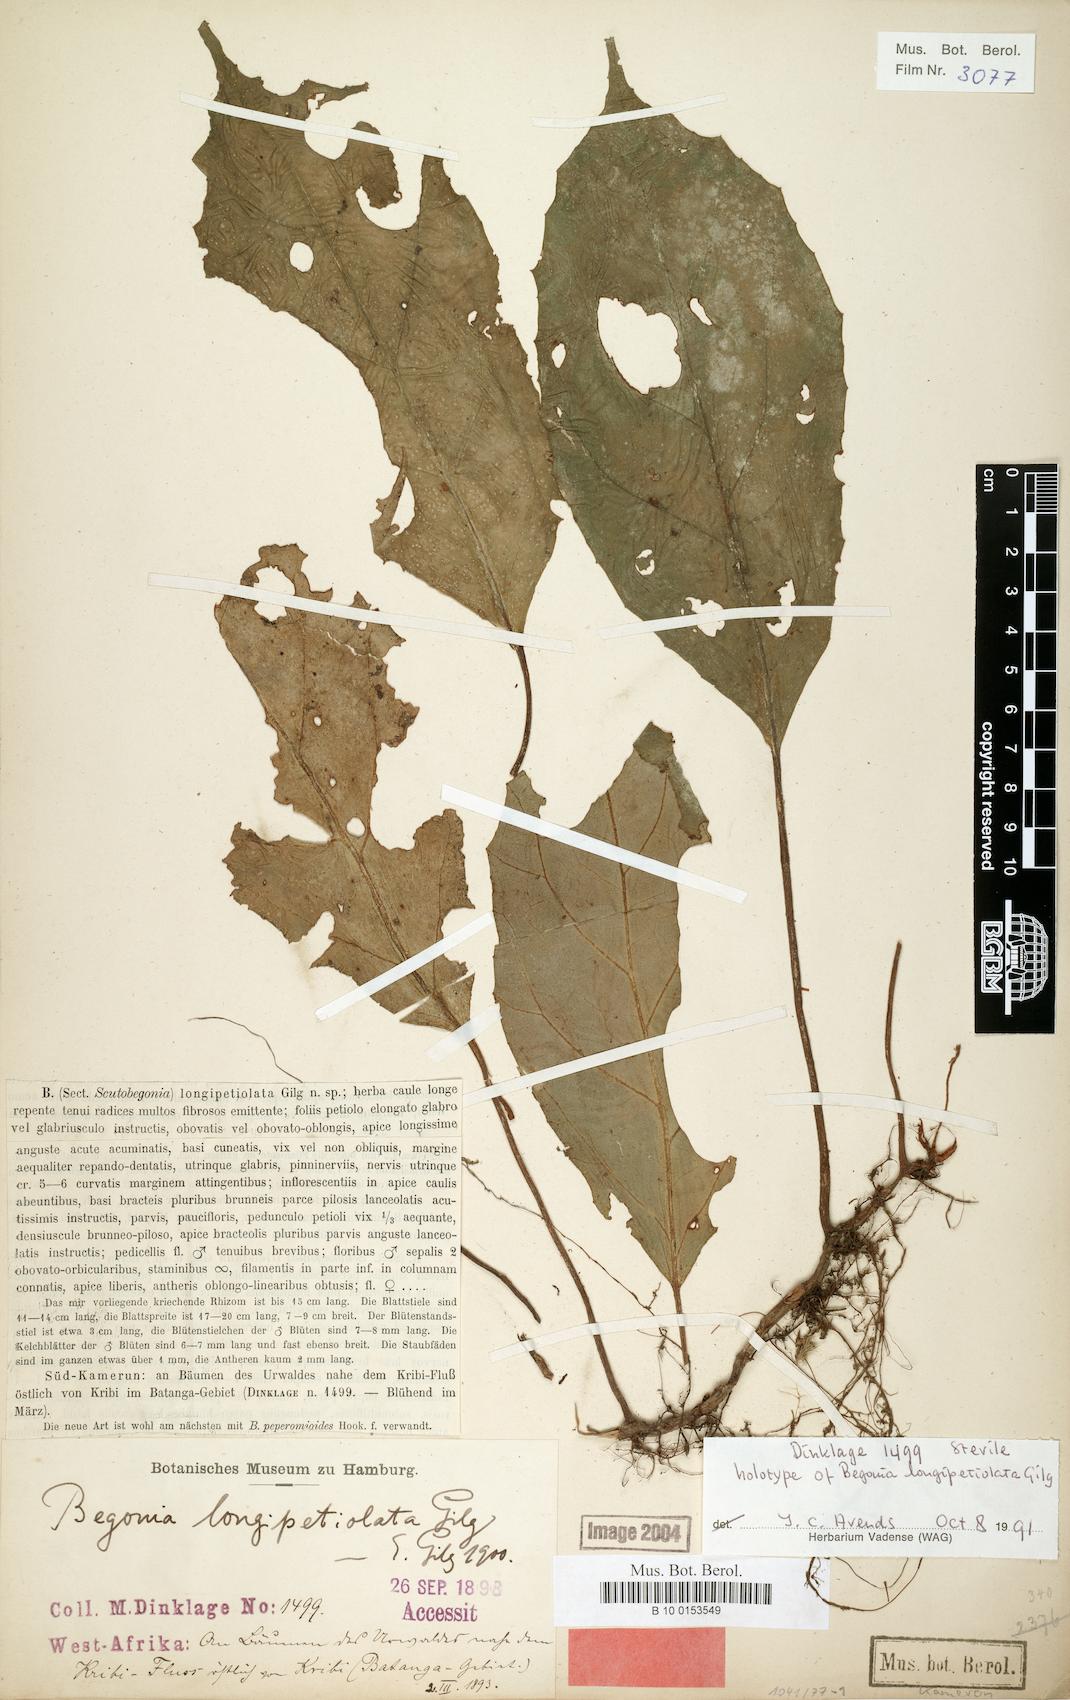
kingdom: Plantae
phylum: Tracheophyta
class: Magnoliopsida
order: Cucurbitales
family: Begoniaceae
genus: Begonia
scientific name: Begonia longipetiolata
